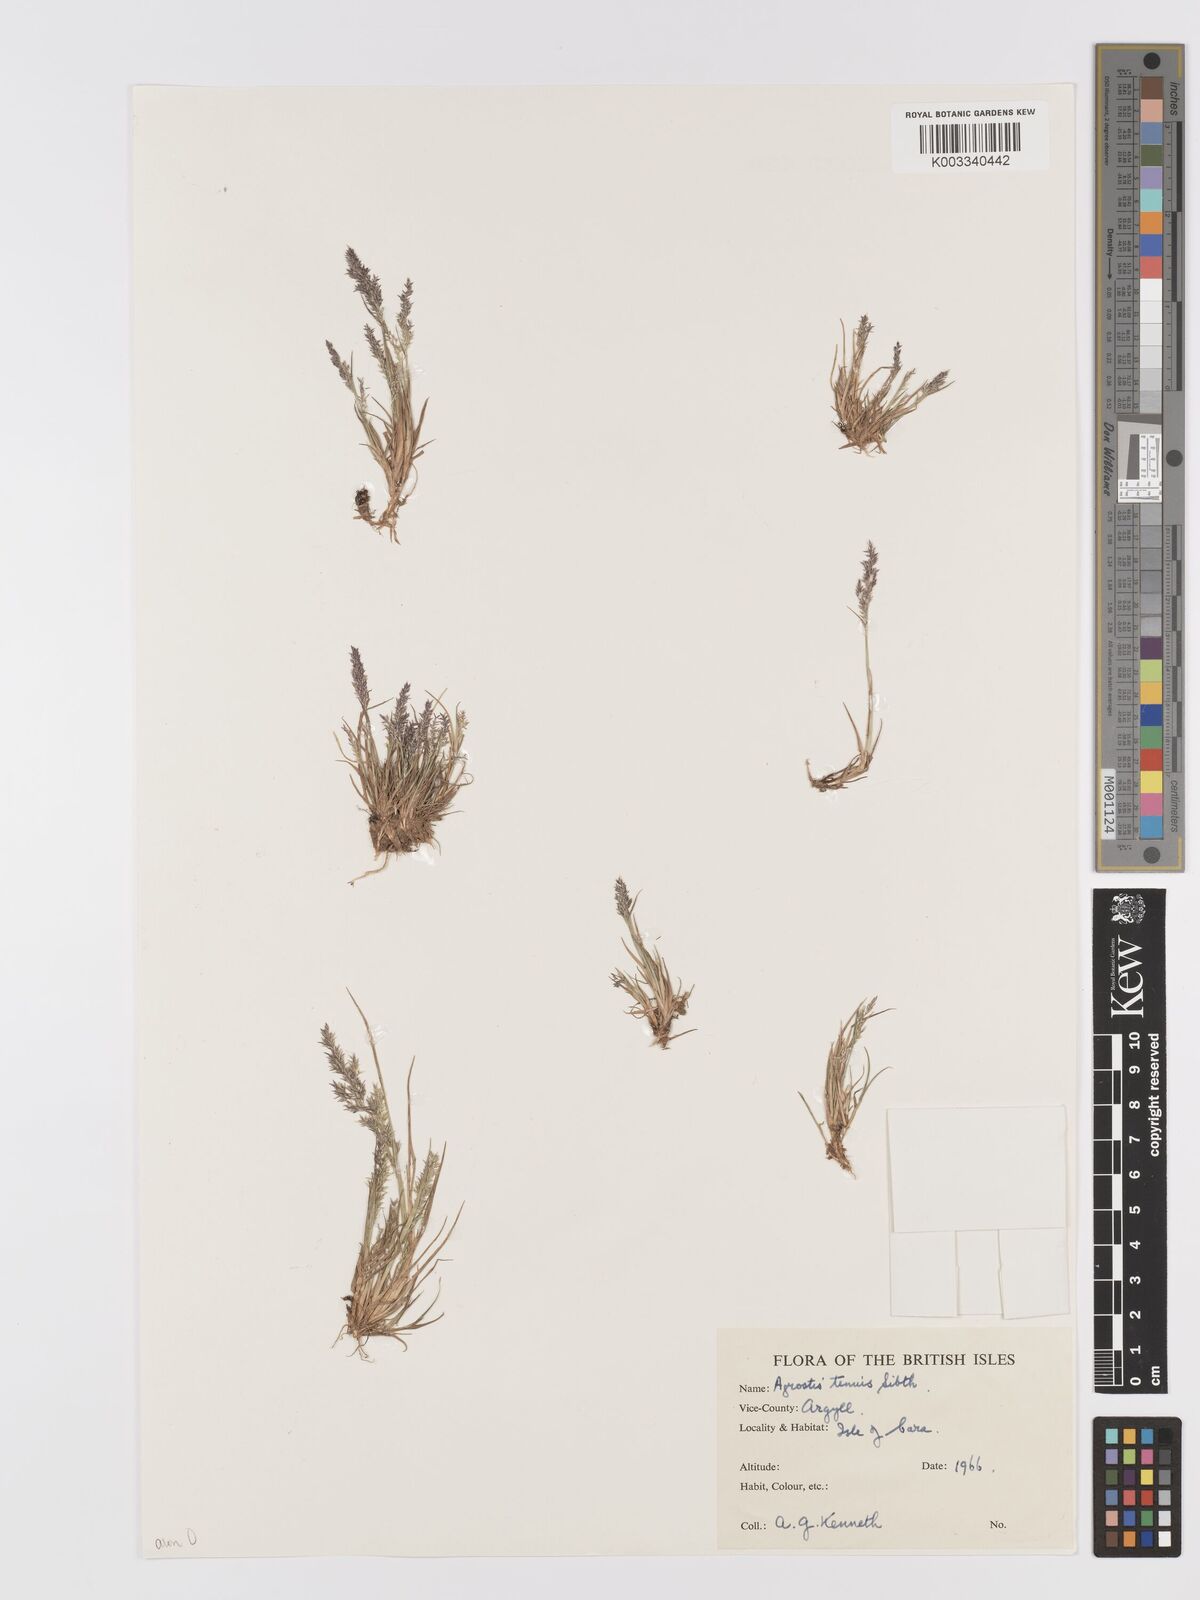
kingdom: Plantae
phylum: Tracheophyta
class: Liliopsida
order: Poales
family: Poaceae
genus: Agrostis
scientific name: Agrostis capillaris
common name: Colonial bentgrass
